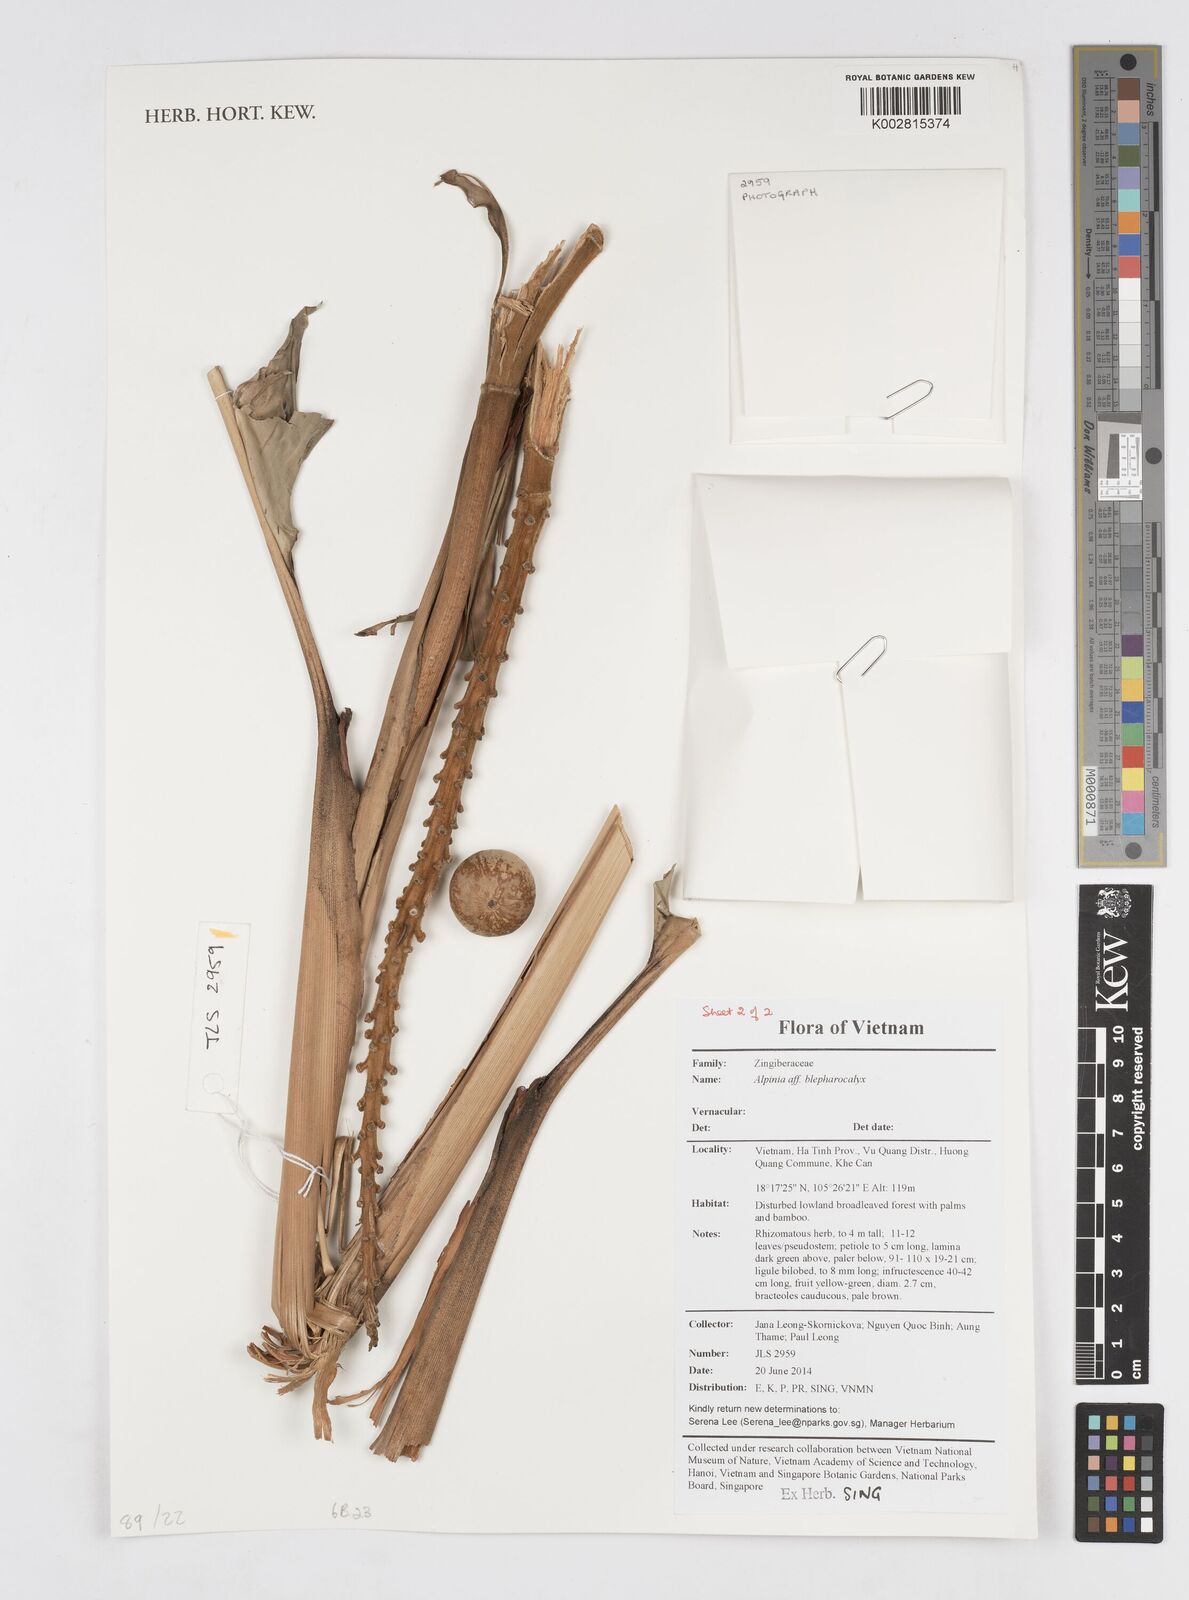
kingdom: Plantae
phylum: Tracheophyta
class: Liliopsida
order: Zingiberales
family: Zingiberaceae
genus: Alpinia
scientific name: Alpinia roxburghii
